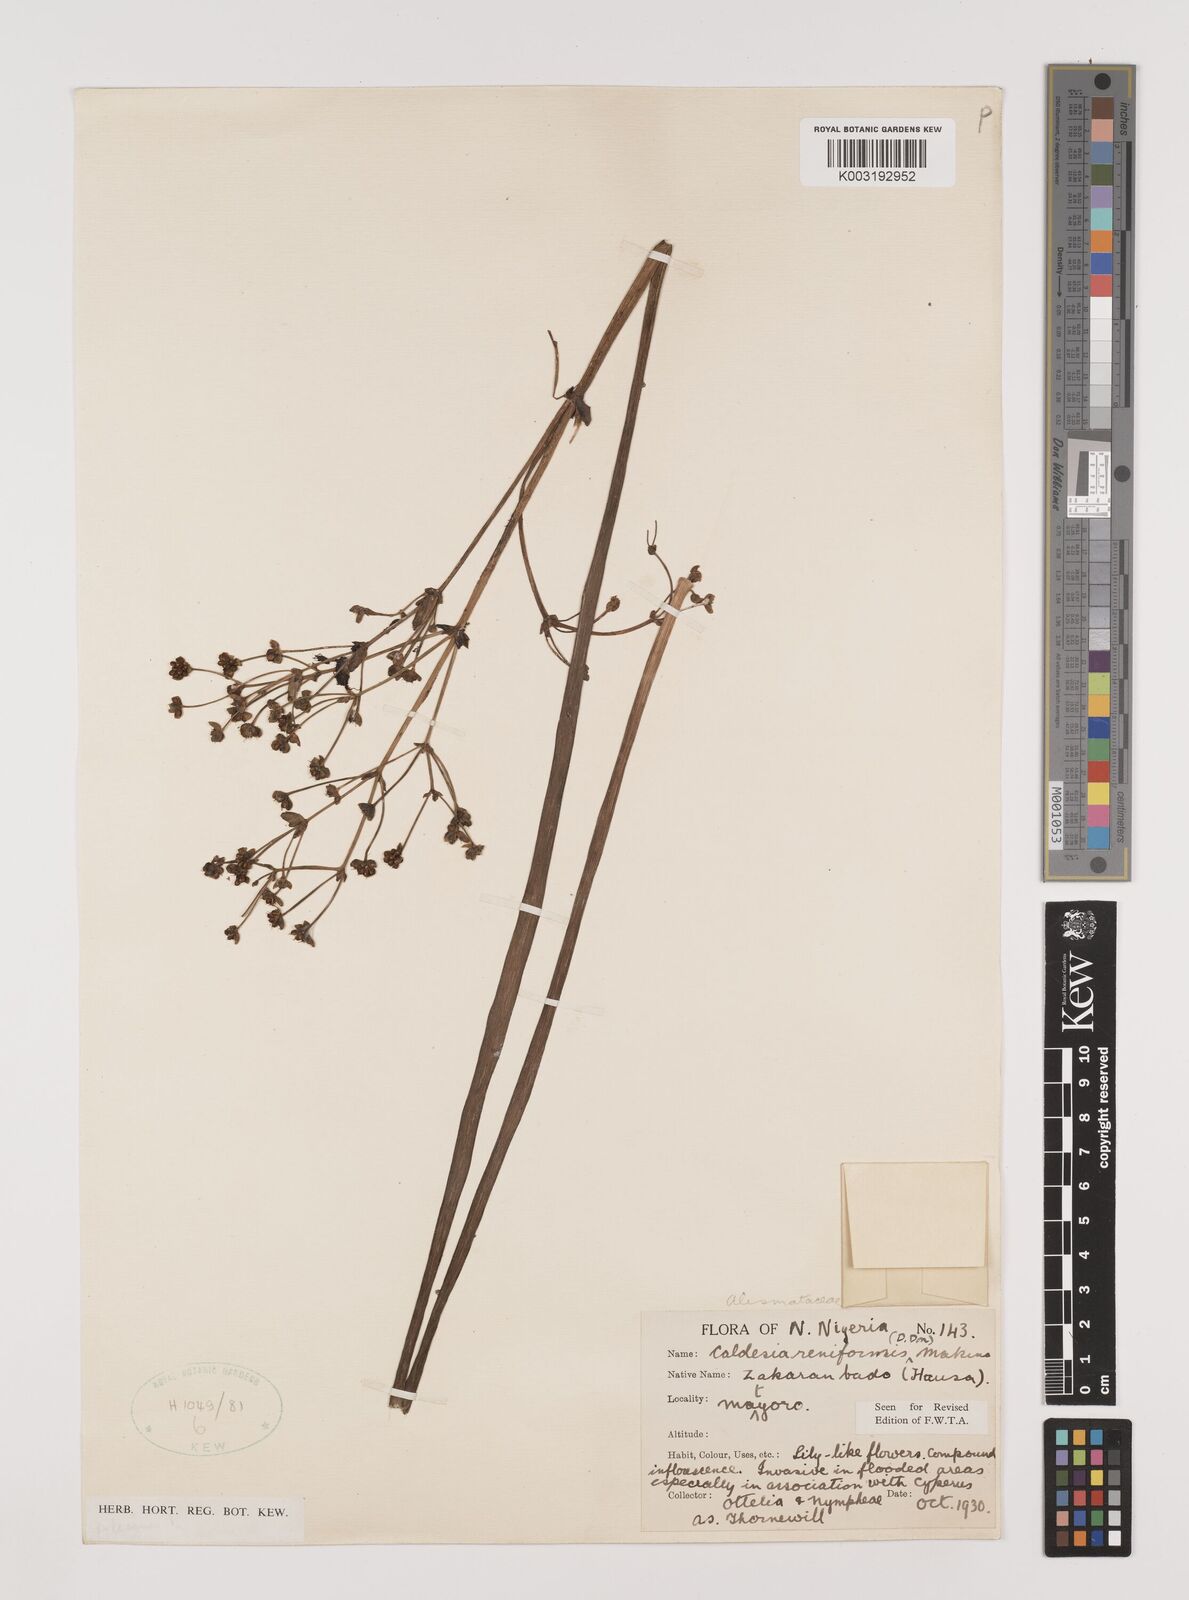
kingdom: Plantae
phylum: Tracheophyta
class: Liliopsida
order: Alismatales
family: Alismataceae
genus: Caldesia
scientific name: Caldesia parnassifolia
